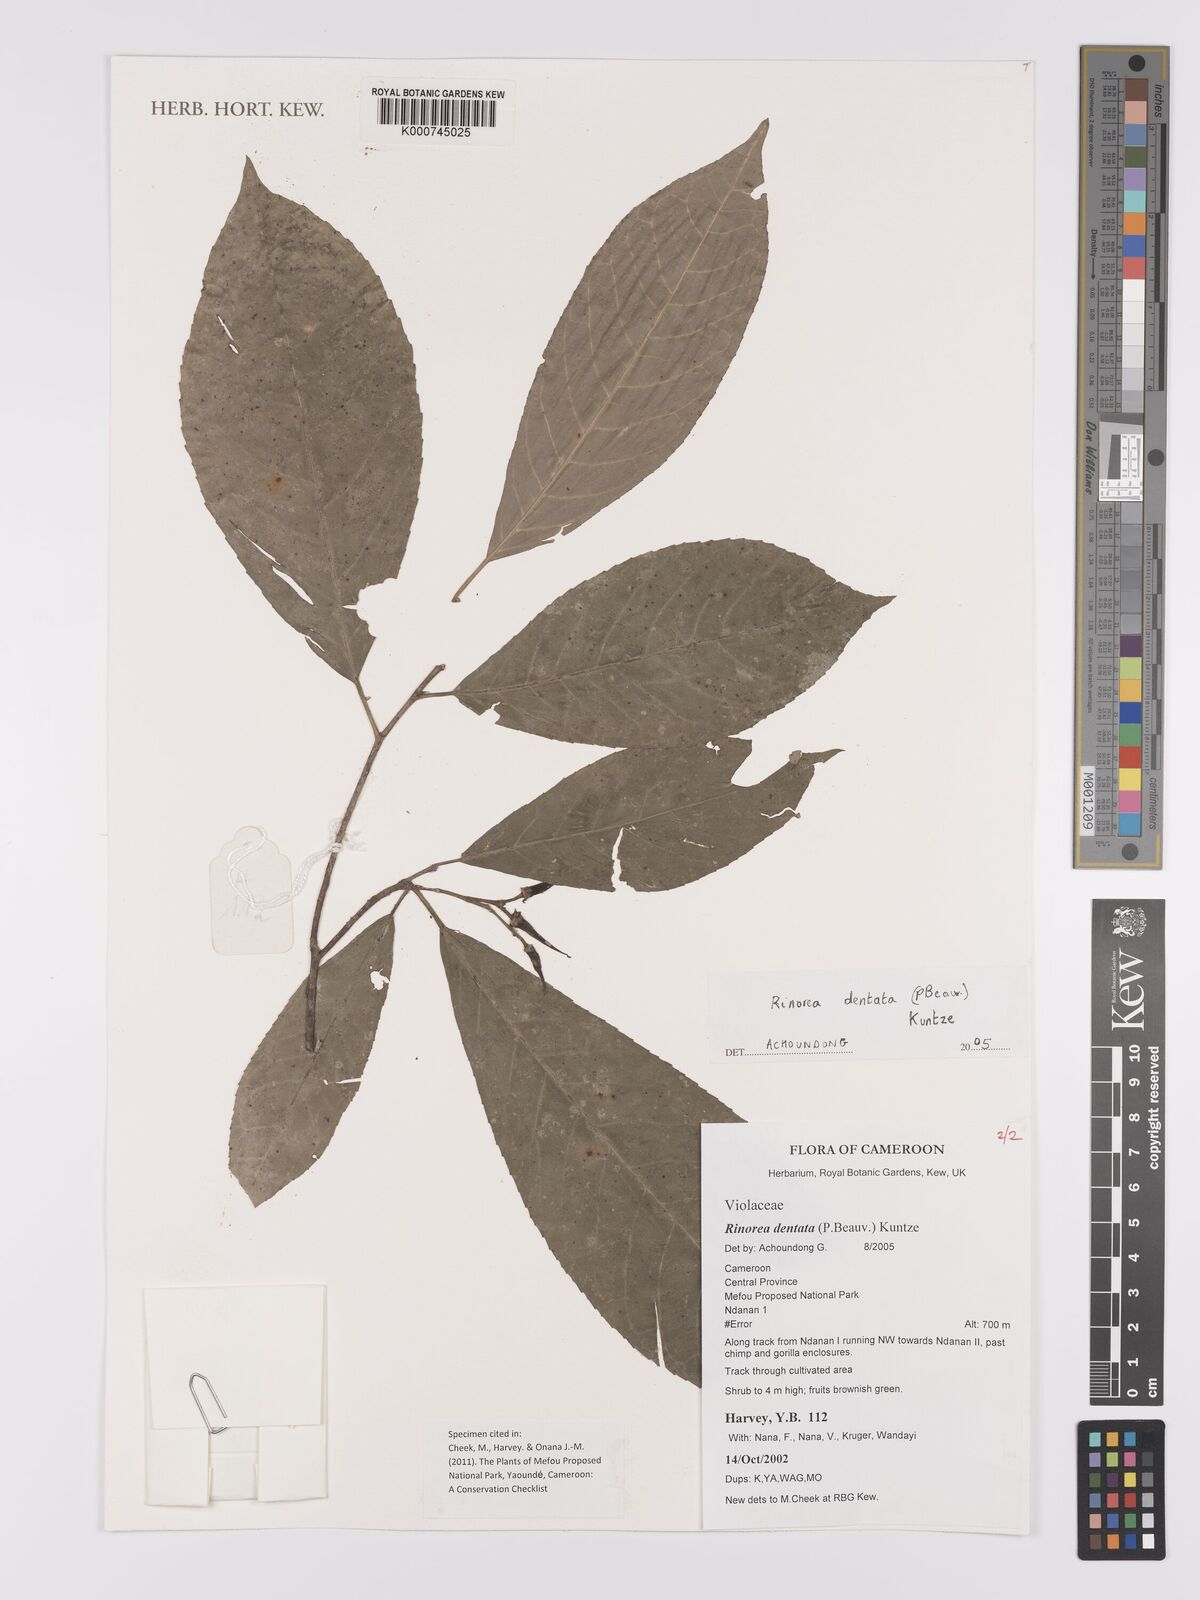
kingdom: Plantae
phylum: Tracheophyta
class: Magnoliopsida
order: Malpighiales
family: Violaceae
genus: Rinorea
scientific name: Rinorea dentata
